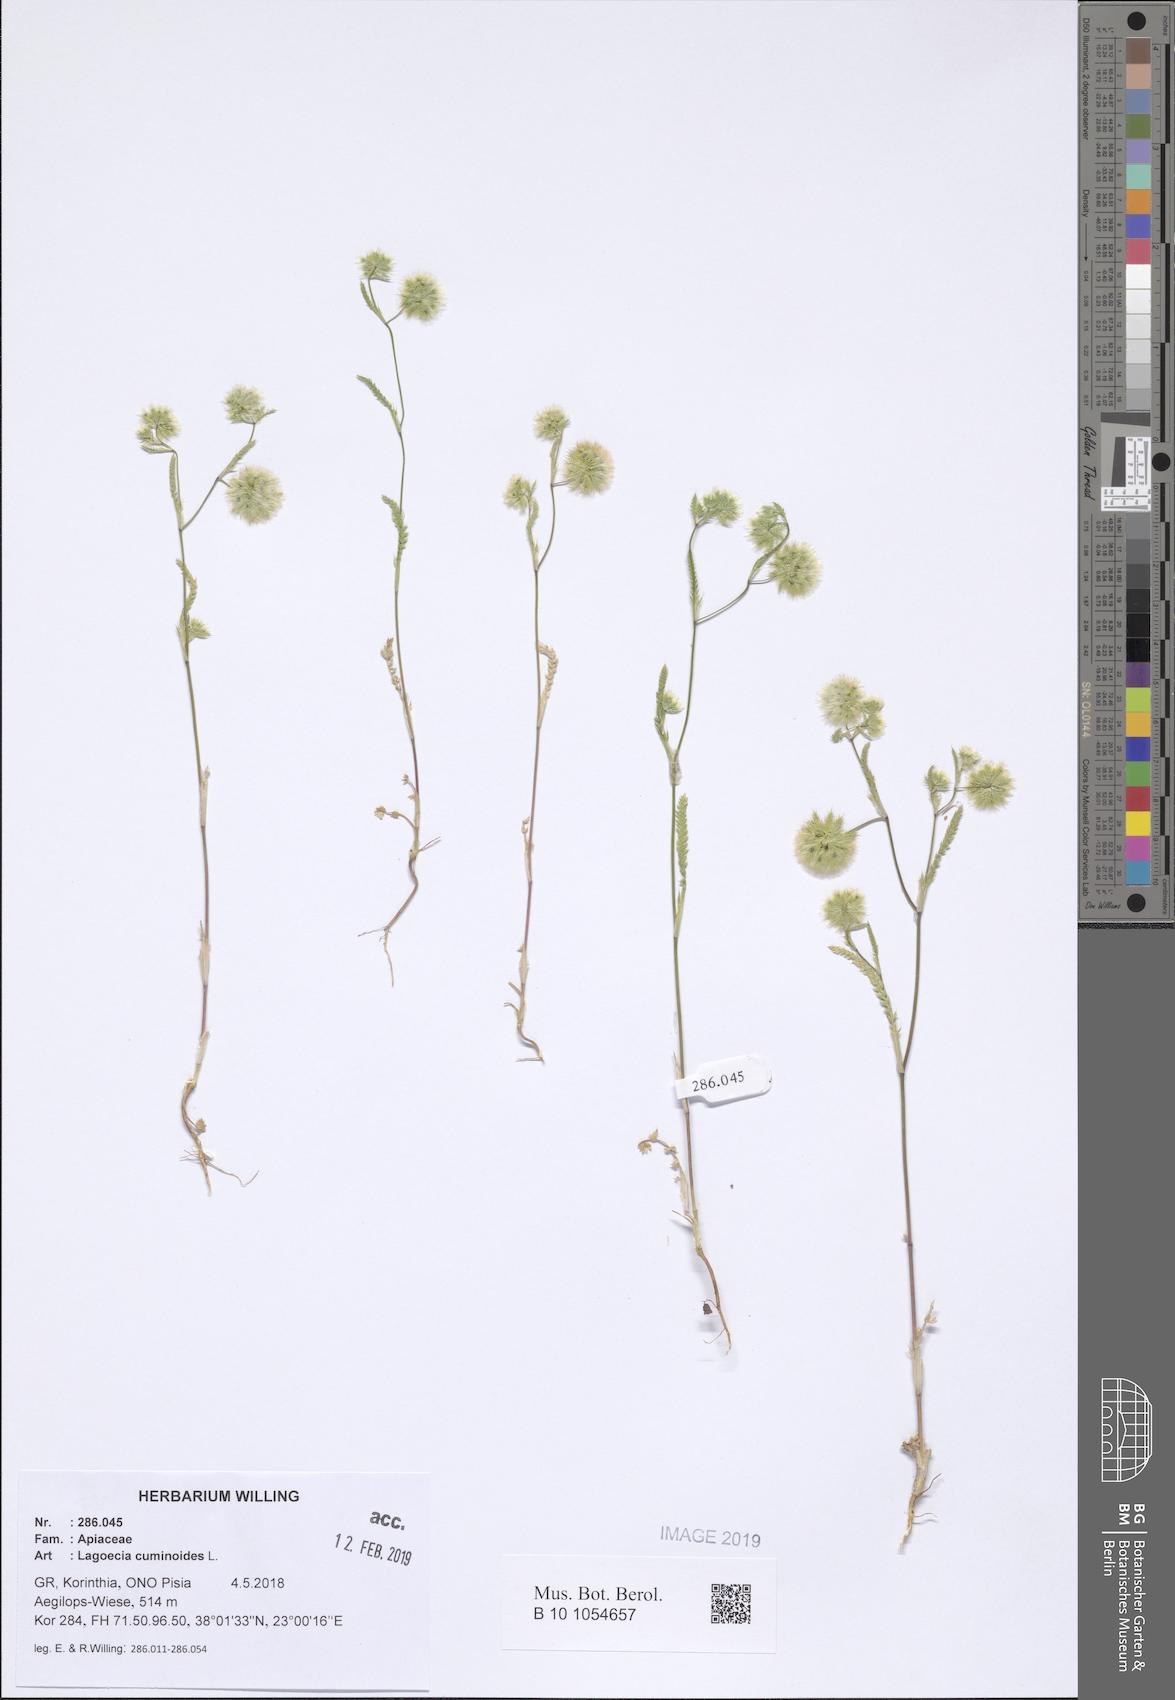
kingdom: Plantae
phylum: Tracheophyta
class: Magnoliopsida
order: Apiales
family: Apiaceae
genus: Lagoecia
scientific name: Lagoecia cuminoides
